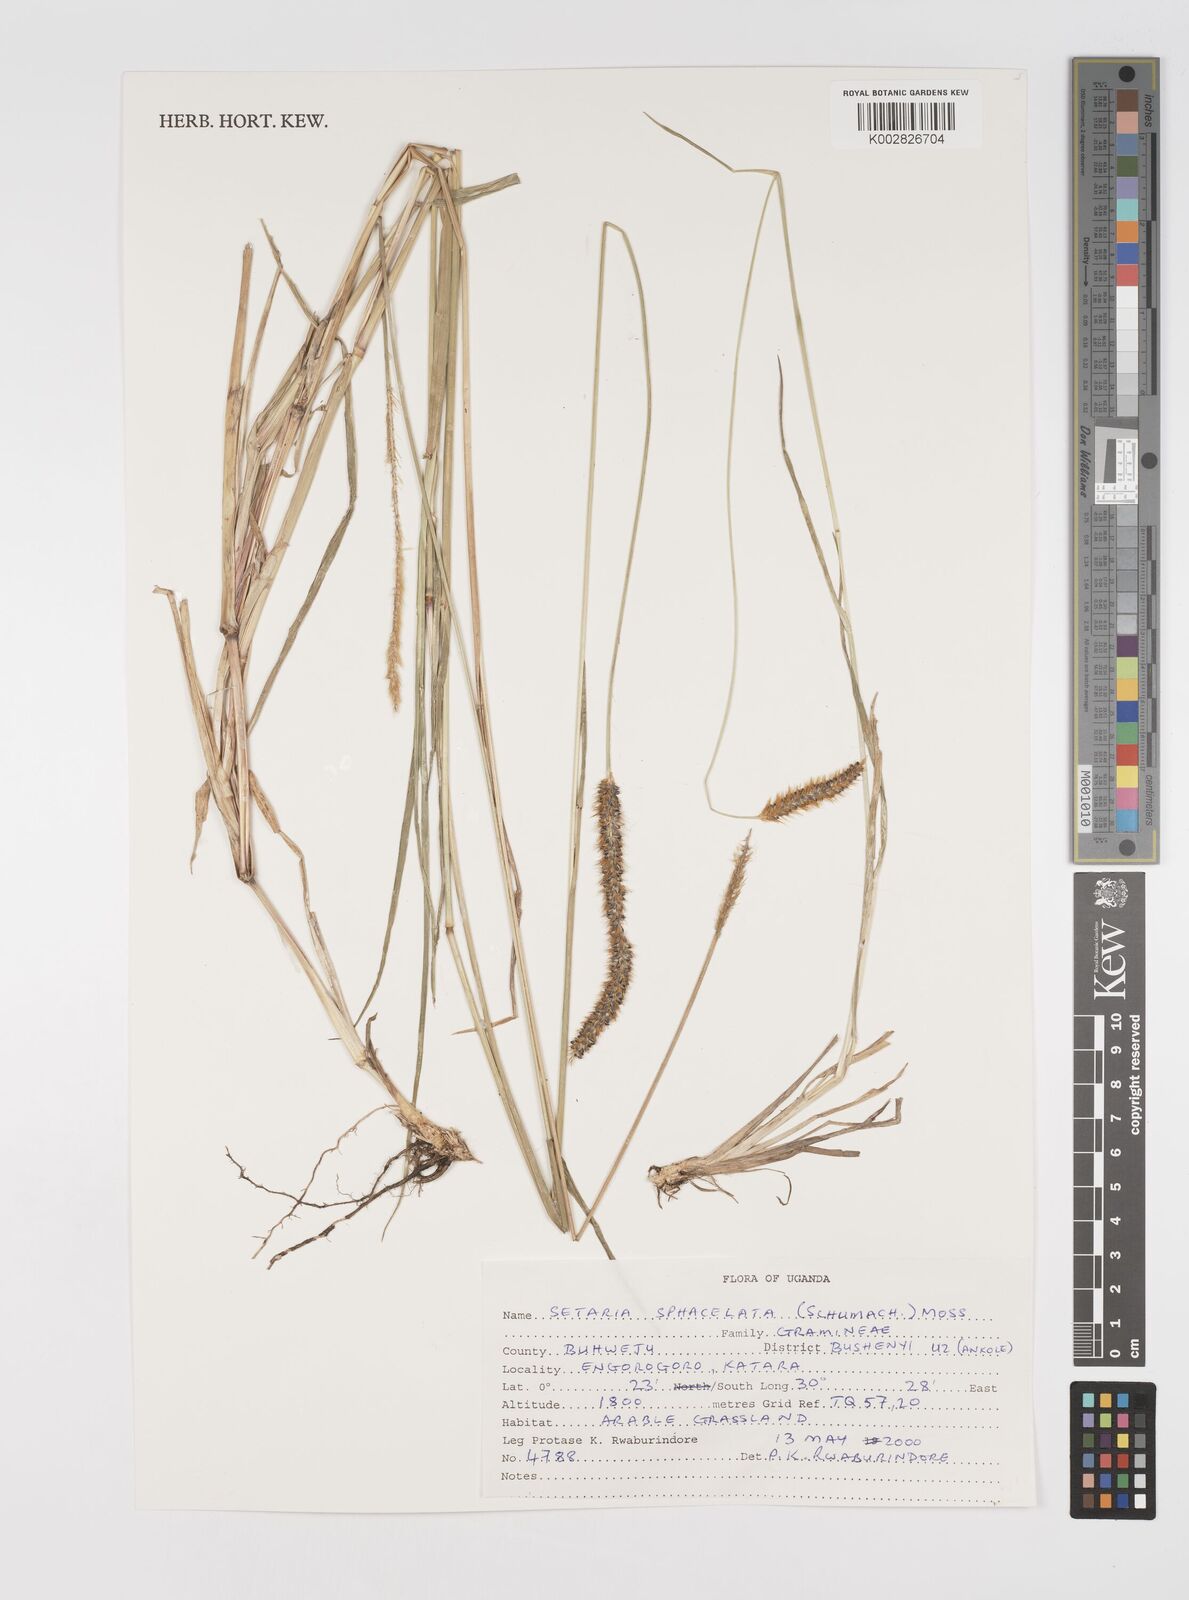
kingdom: Plantae
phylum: Tracheophyta
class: Liliopsida
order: Poales
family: Poaceae
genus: Setaria
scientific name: Setaria sphacelata
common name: African bristlegrass
